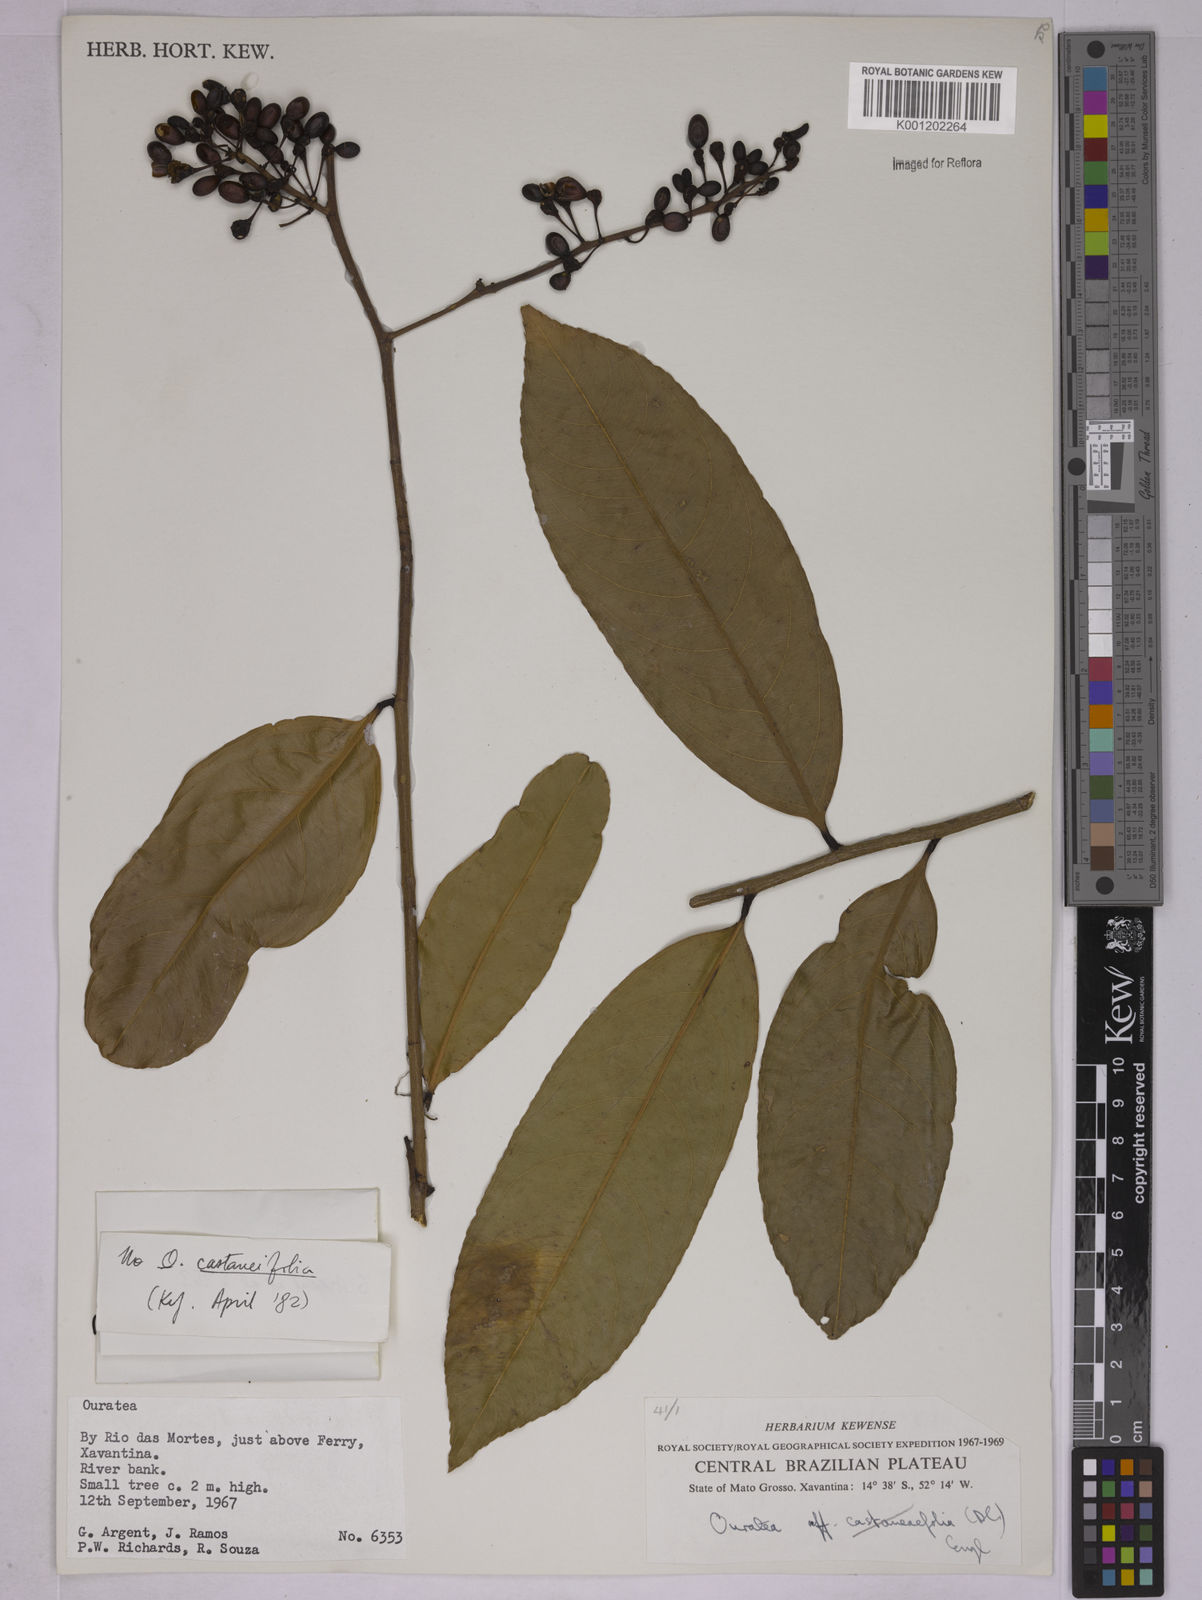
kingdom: Plantae
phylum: Tracheophyta
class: Magnoliopsida
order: Malpighiales
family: Ochnaceae
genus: Ouratea
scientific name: Ouratea
